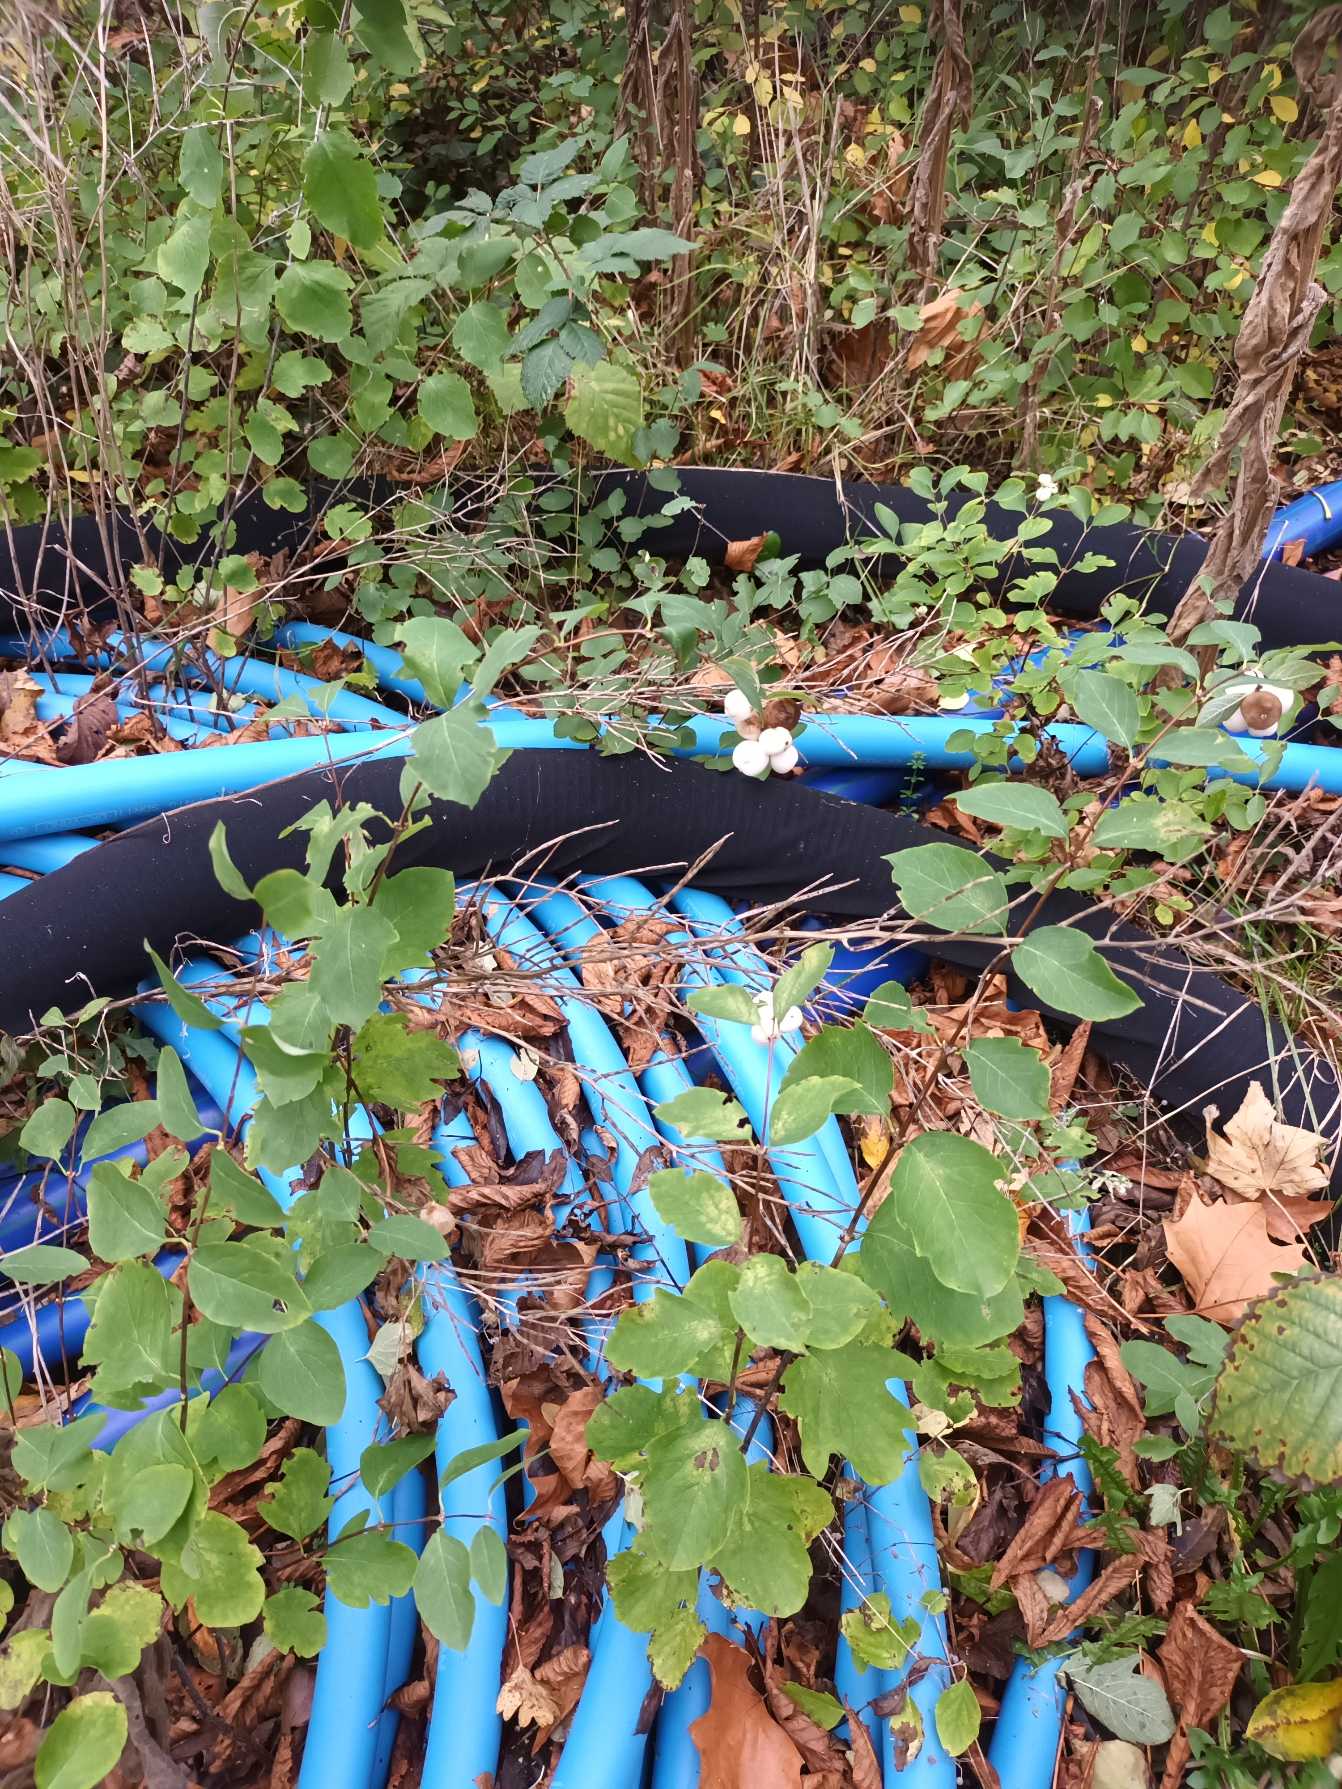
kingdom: Plantae
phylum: Tracheophyta
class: Magnoliopsida
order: Dipsacales
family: Caprifoliaceae
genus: Symphoricarpos
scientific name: Symphoricarpos albus
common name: Almindelig snebær
